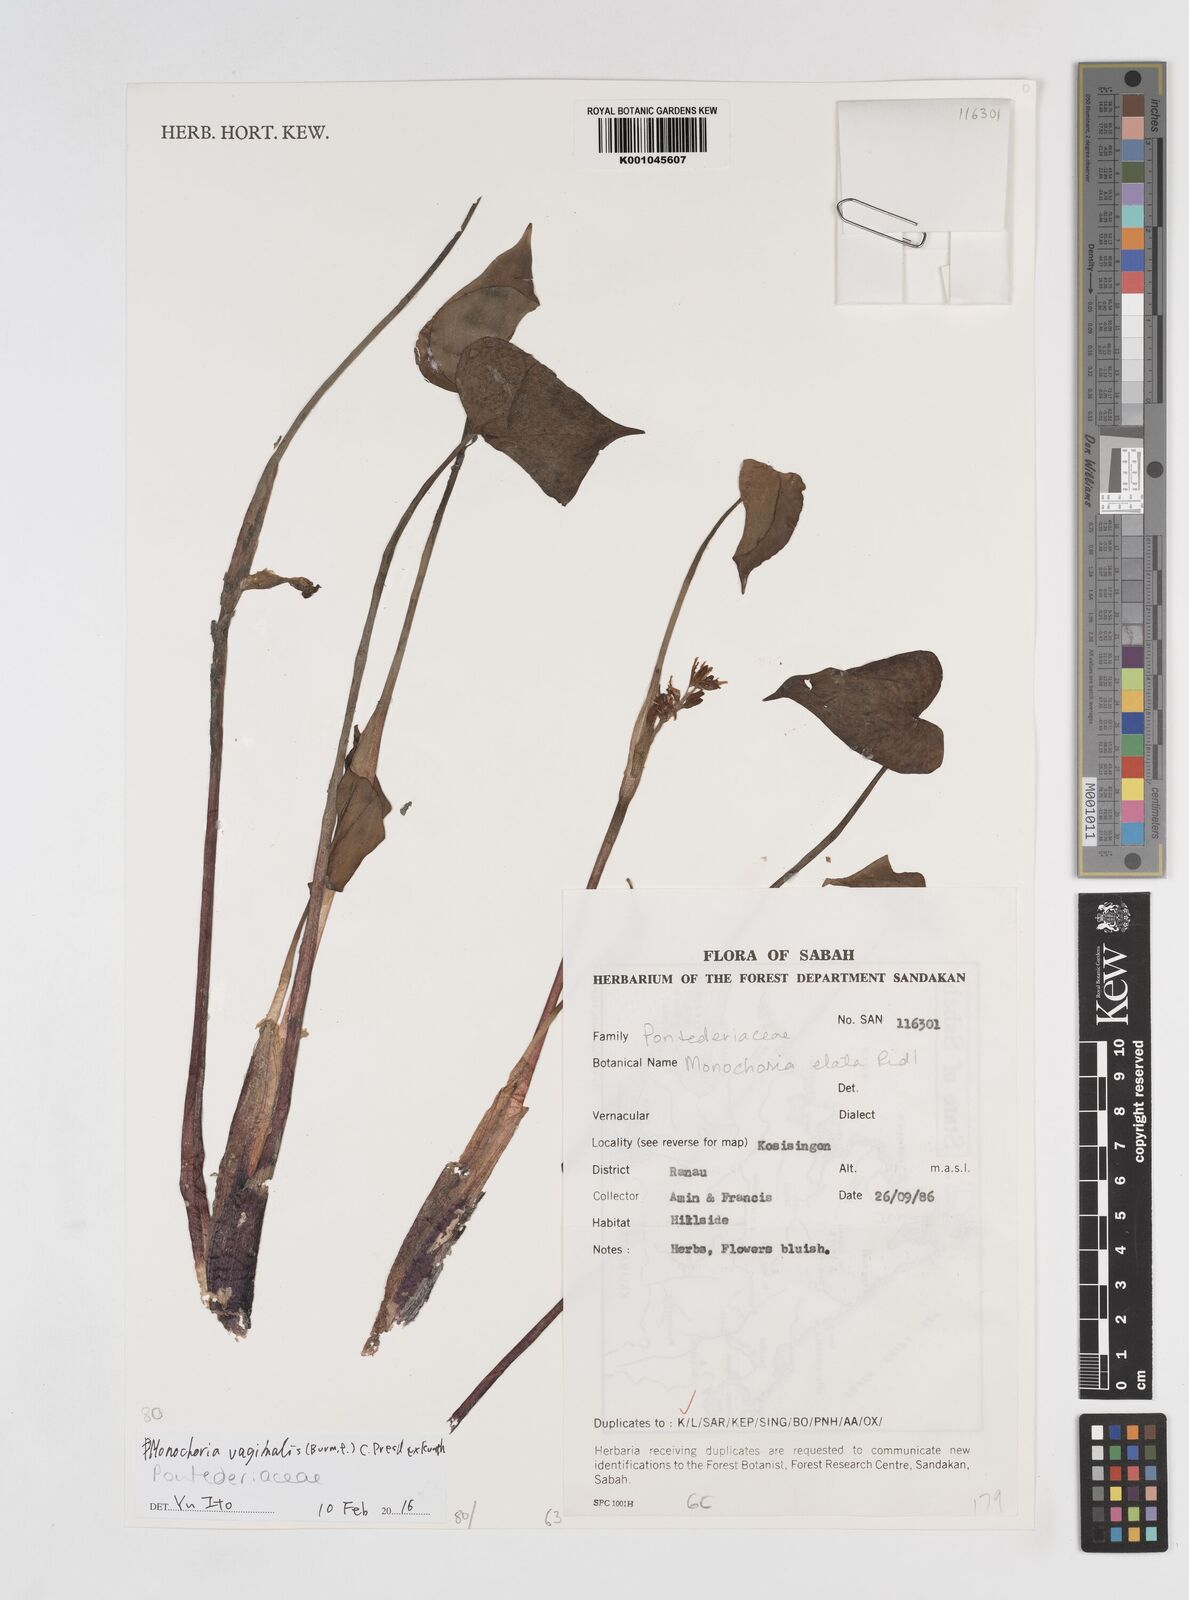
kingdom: Plantae
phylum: Tracheophyta
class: Liliopsida
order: Commelinales
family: Pontederiaceae
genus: Pontederia
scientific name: Pontederia vaginalis
